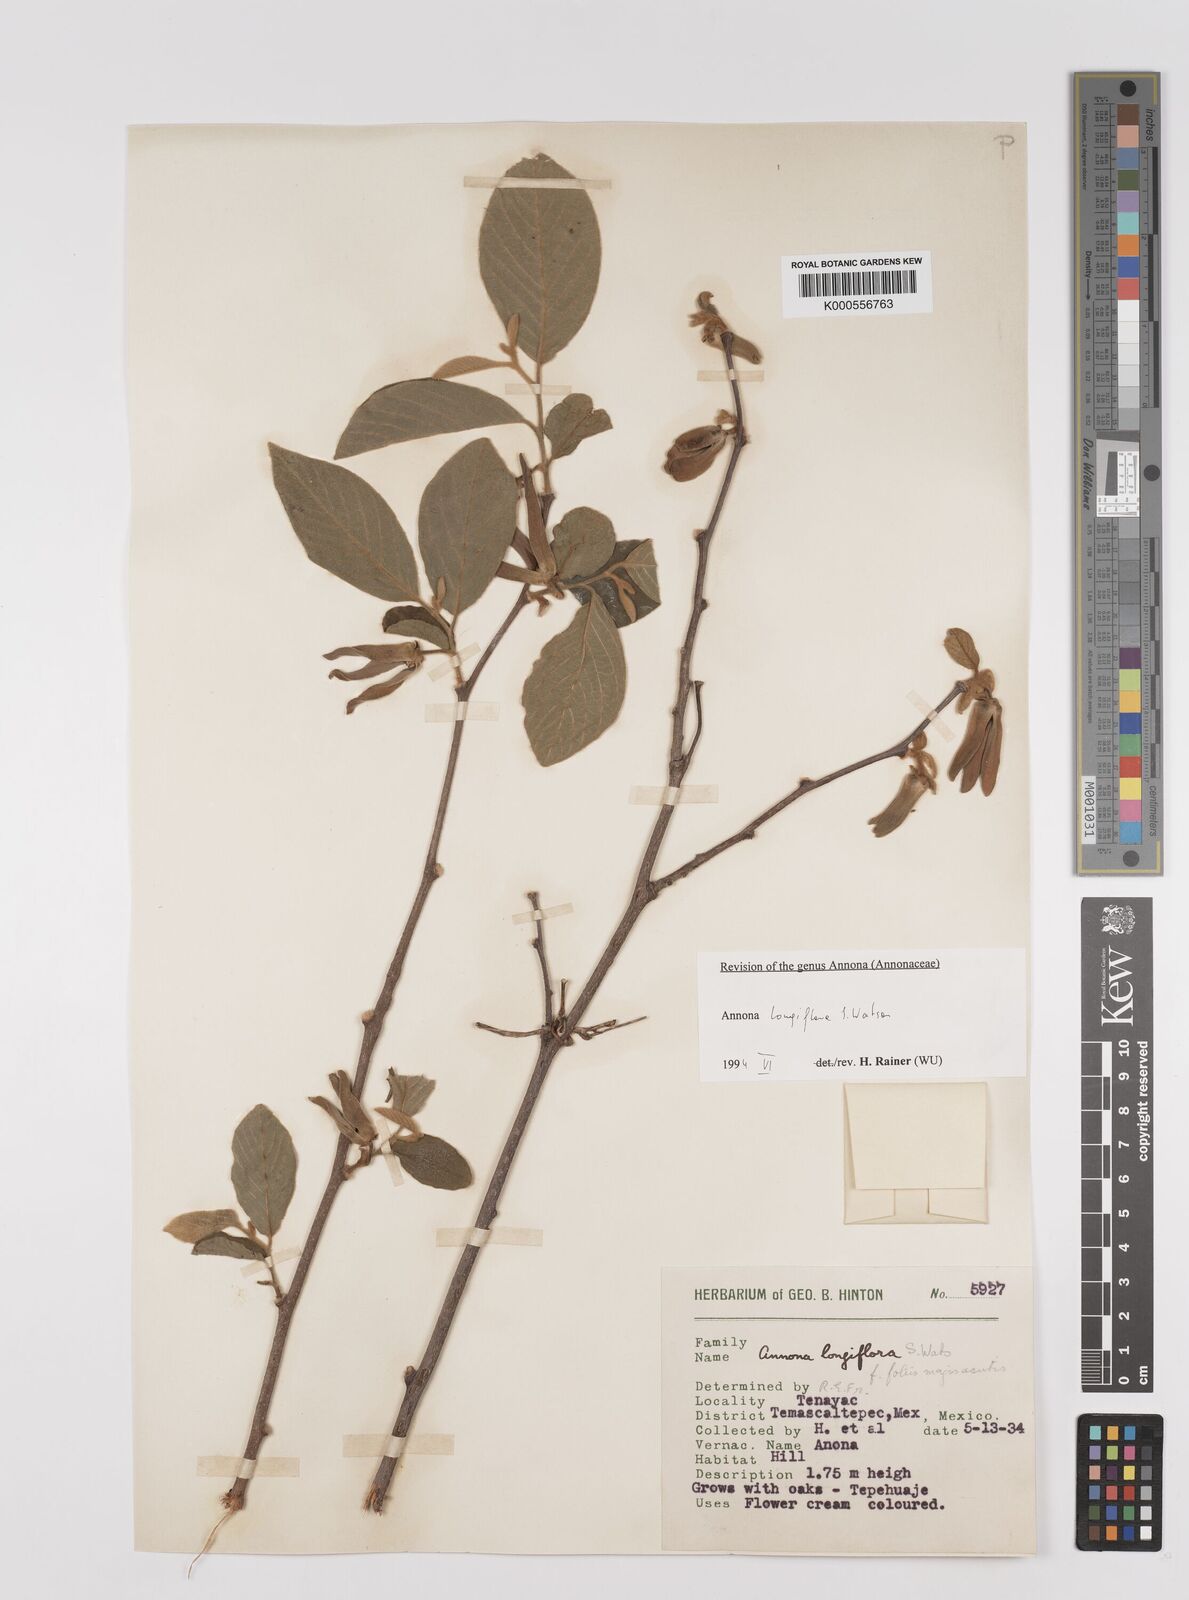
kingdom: Plantae
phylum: Tracheophyta
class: Magnoliopsida
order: Magnoliales
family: Annonaceae
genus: Annona
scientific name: Annona longiflora
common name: Wild cherimoya of jalisco
